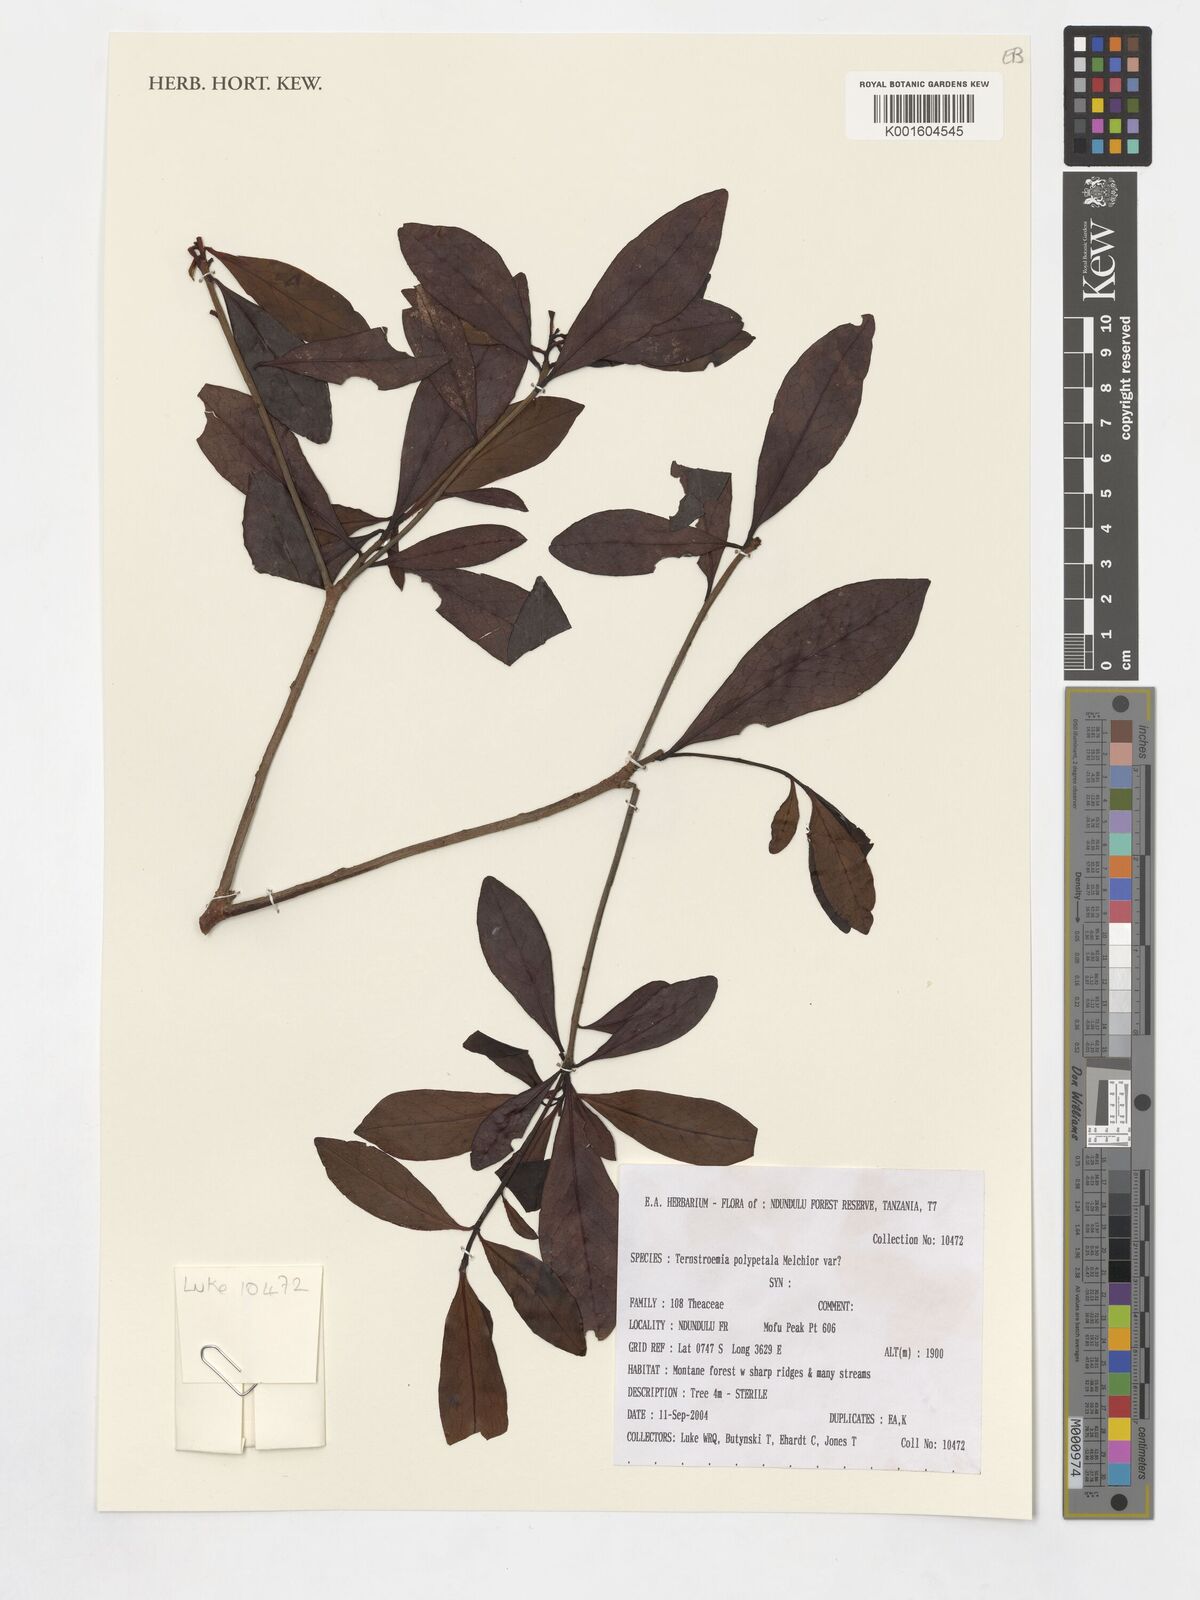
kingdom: Plantae
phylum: Tracheophyta
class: Magnoliopsida
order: Ericales
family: Pentaphylacaceae
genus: Ternstroemia
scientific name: Ternstroemia polypetala
